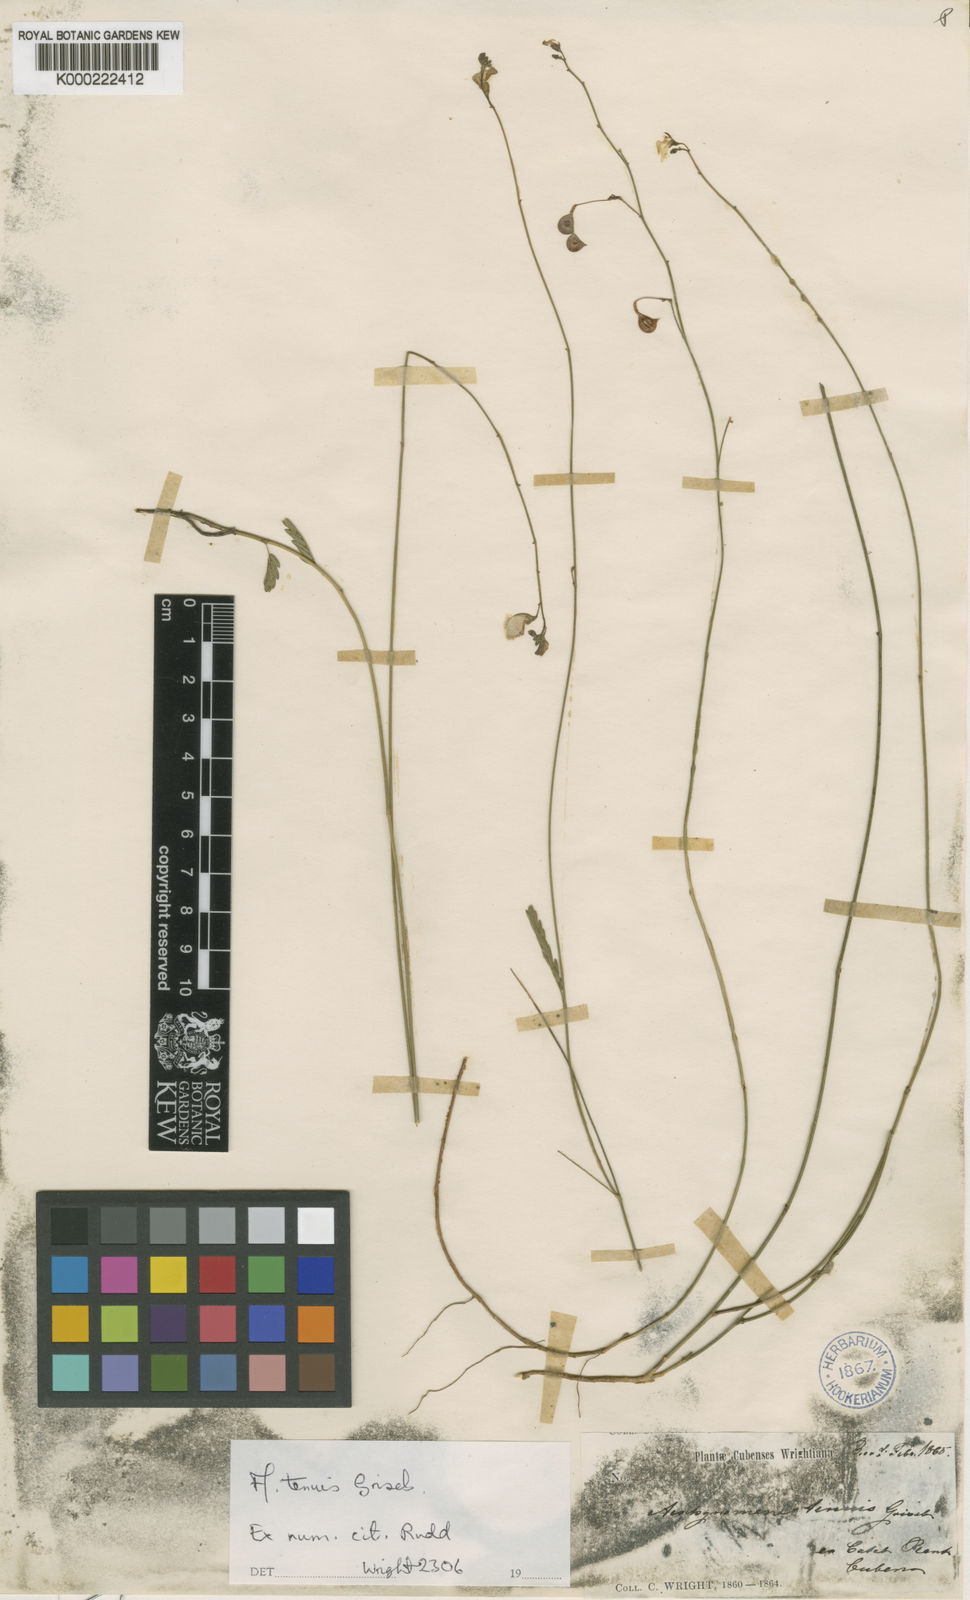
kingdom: Plantae
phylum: Tracheophyta
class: Magnoliopsida
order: Fabales
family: Fabaceae
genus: Ctenodon
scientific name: Ctenodon tenuis
